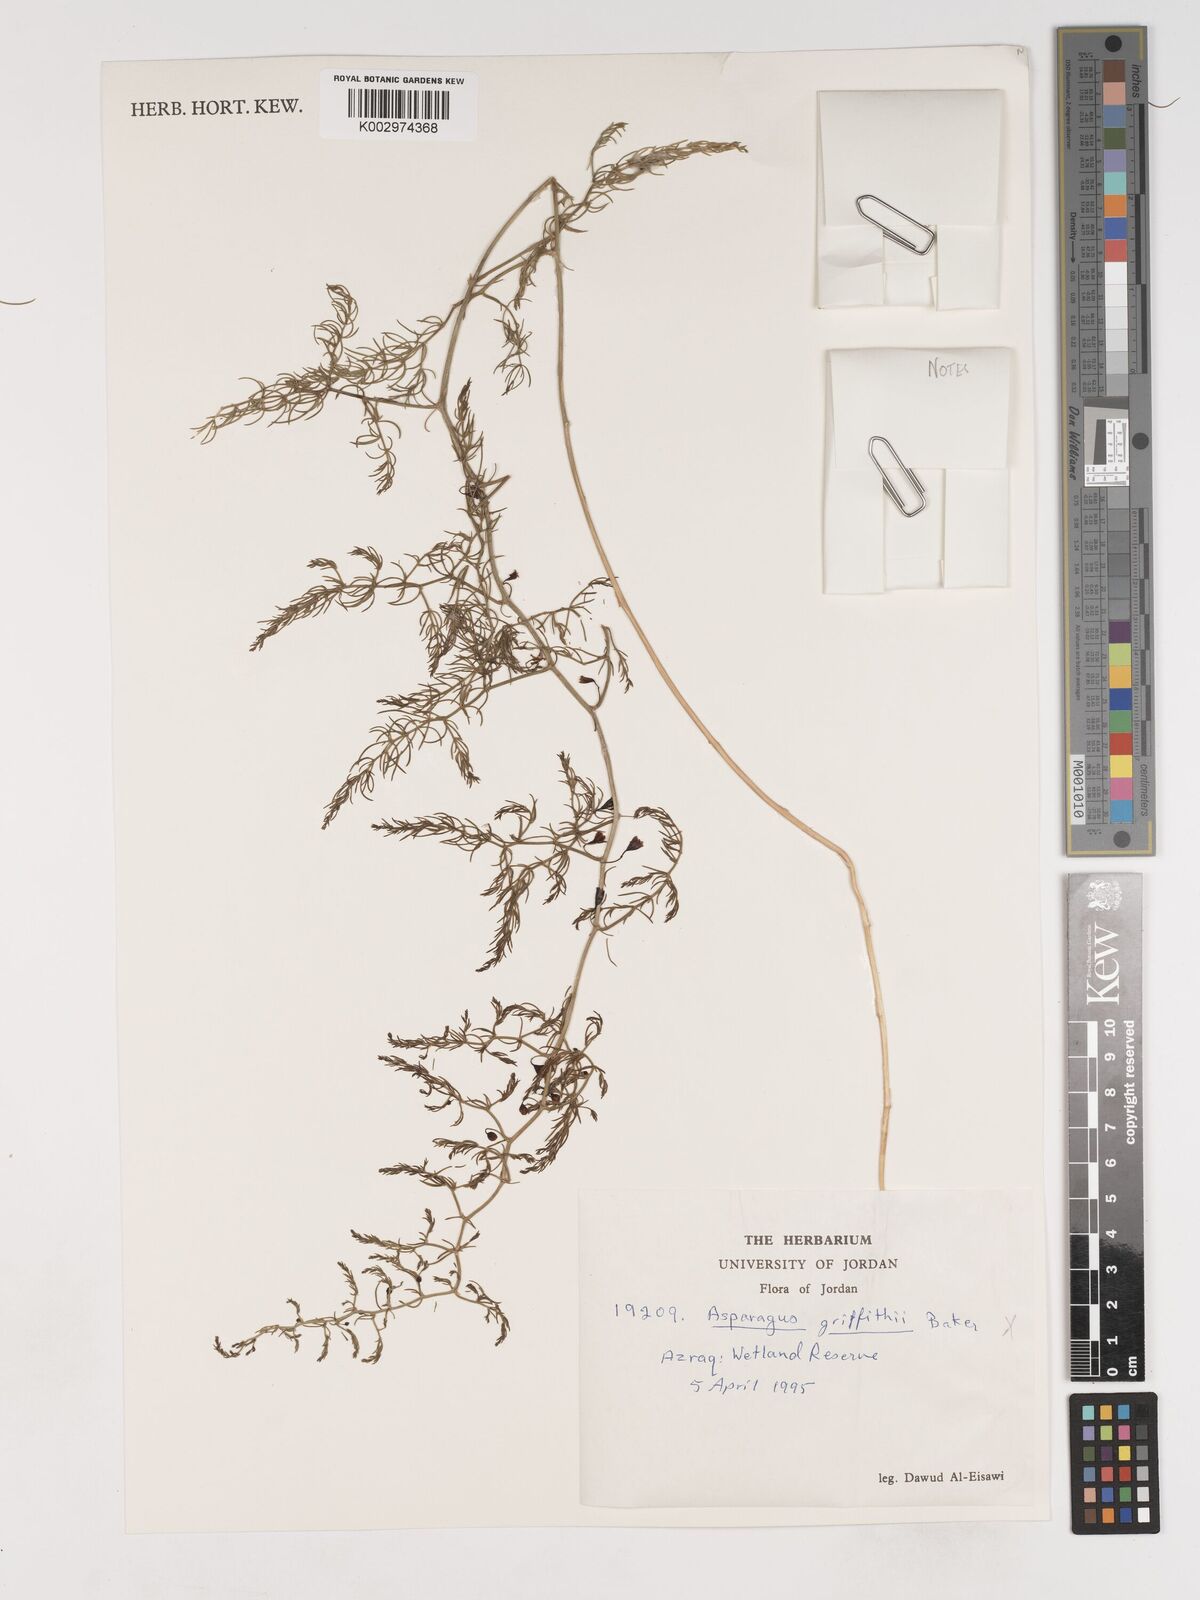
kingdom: Plantae
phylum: Tracheophyta
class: Liliopsida
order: Asparagales
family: Asparagaceae
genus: Asparagus
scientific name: Asparagus griffithii
